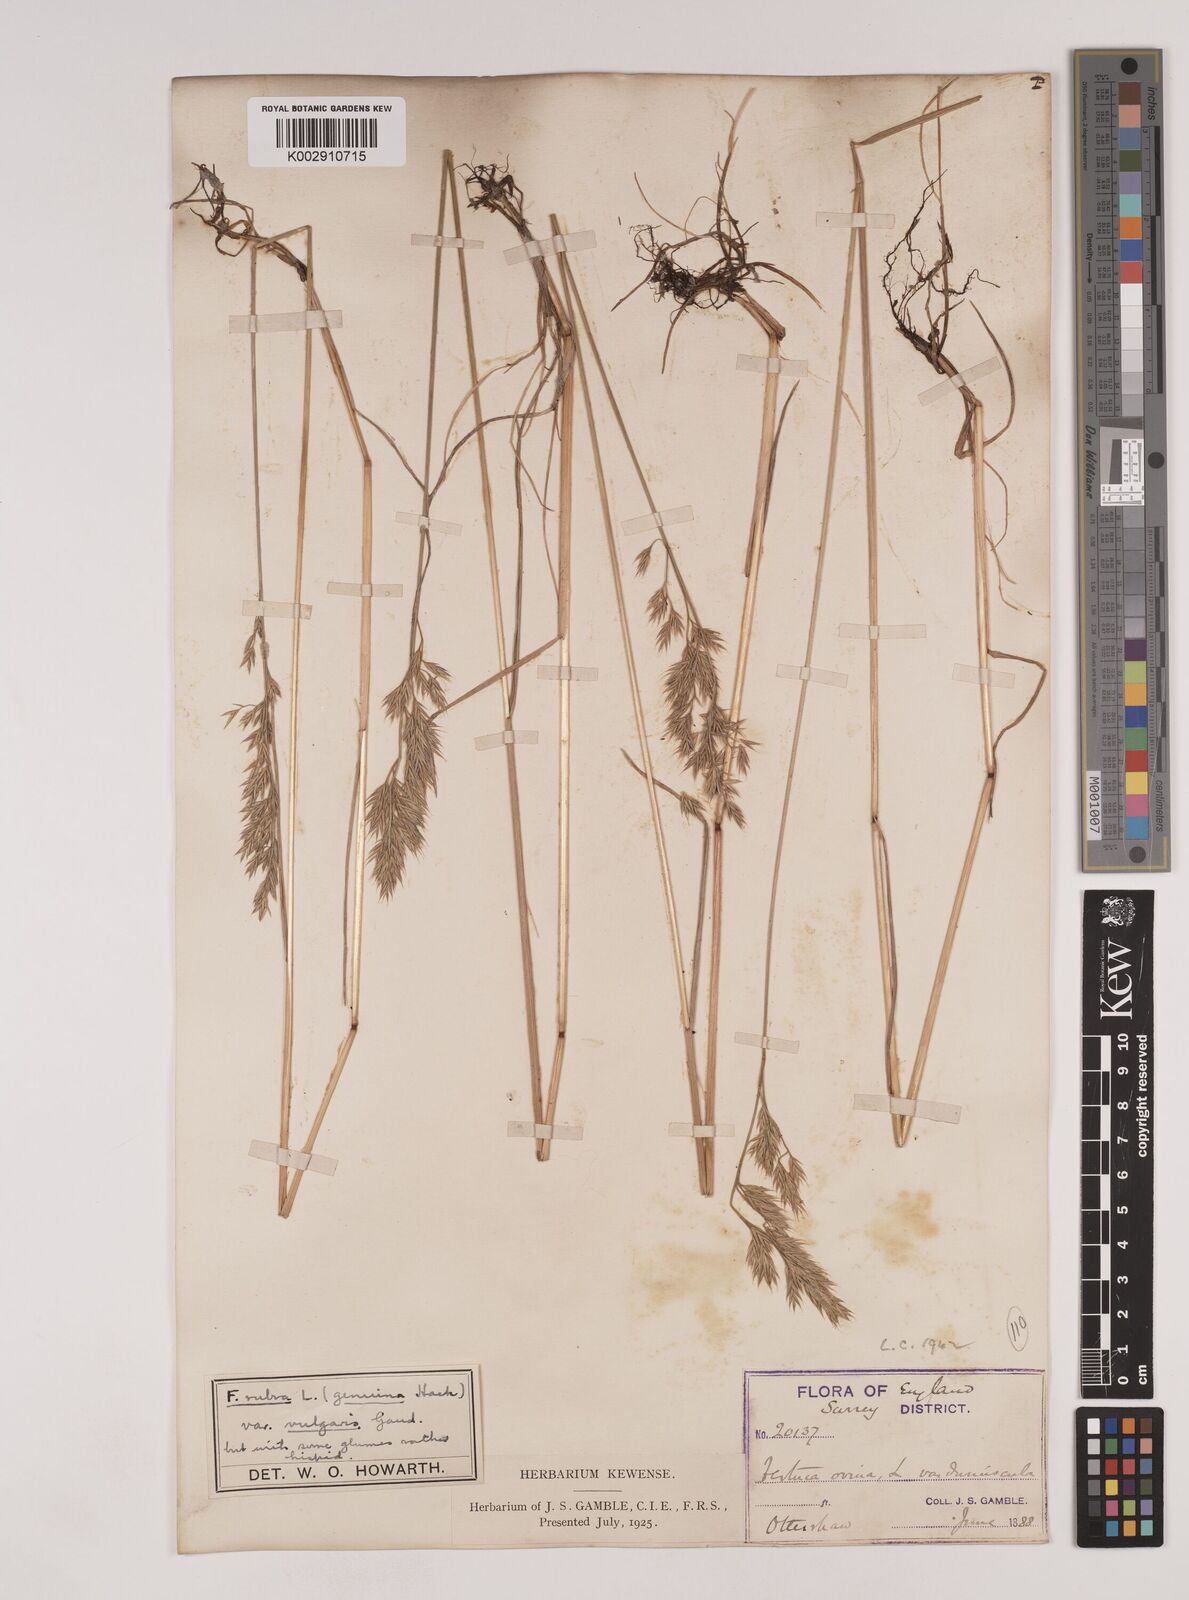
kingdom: Plantae
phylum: Tracheophyta
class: Liliopsida
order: Poales
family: Poaceae
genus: Festuca
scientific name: Festuca rubra
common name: Red fescue
